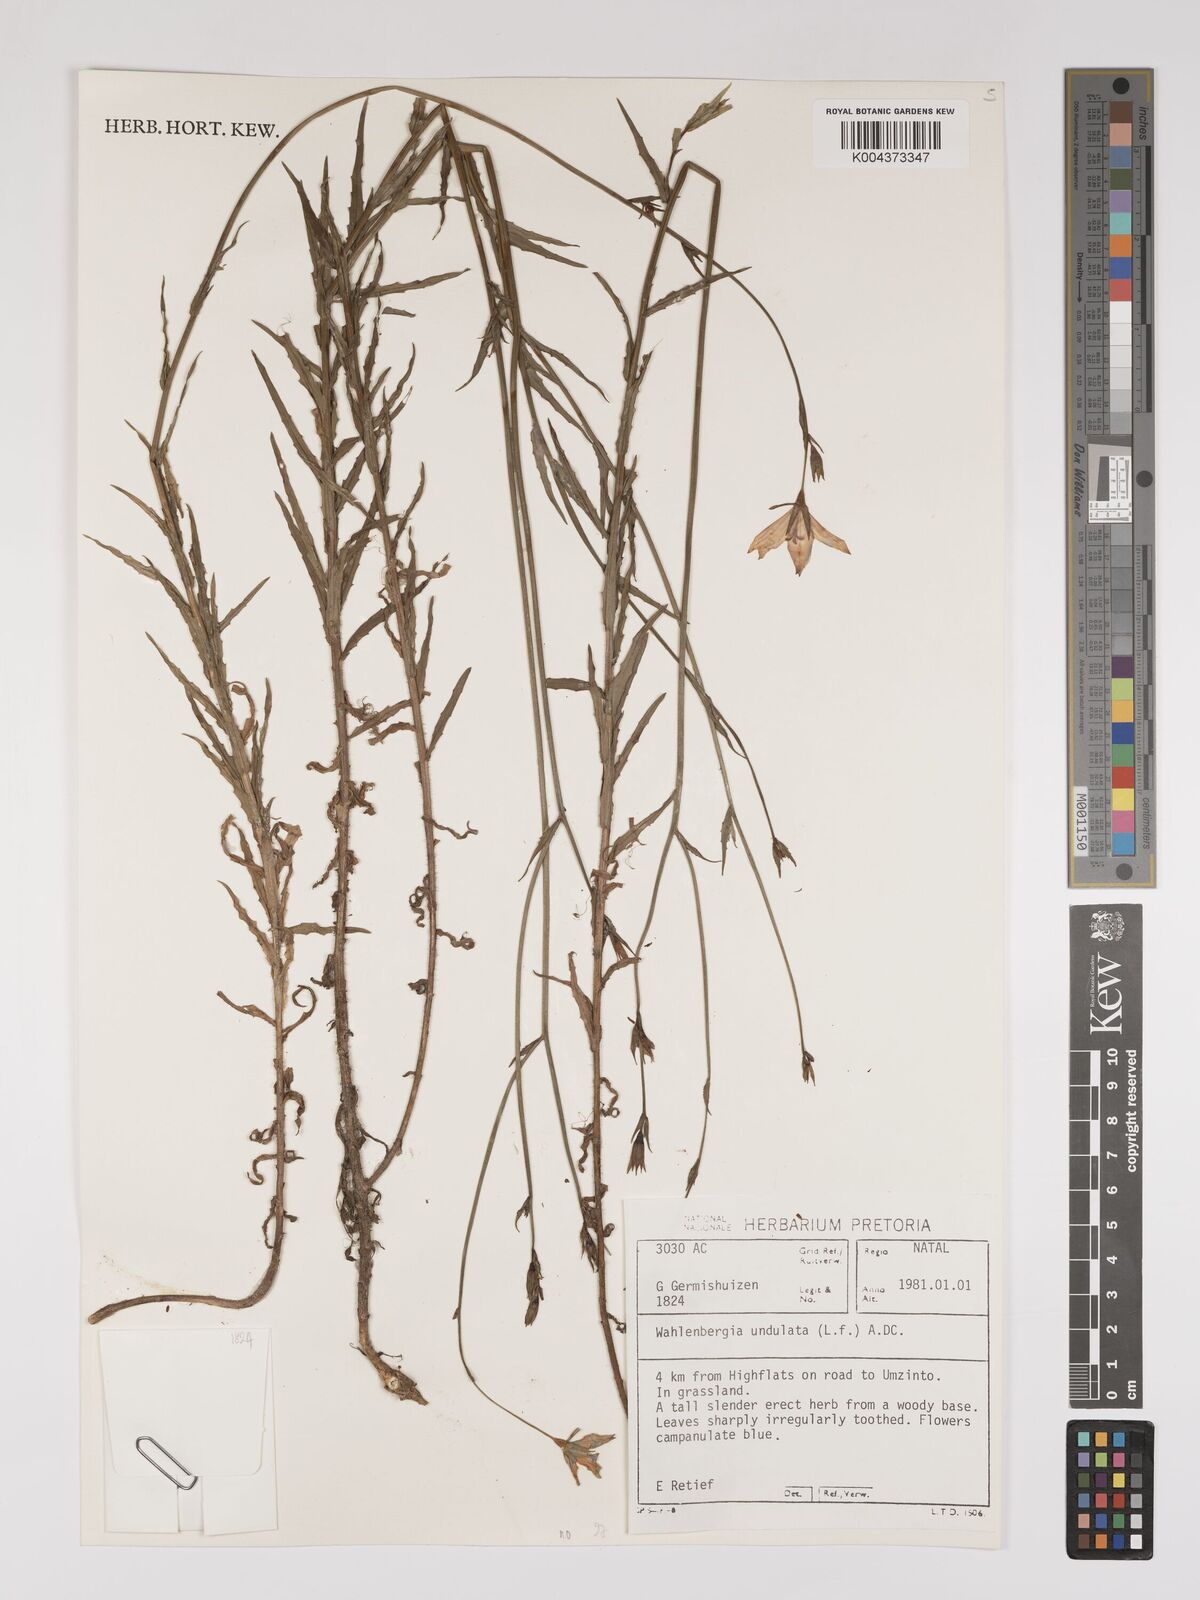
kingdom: Plantae
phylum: Tracheophyta
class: Magnoliopsida
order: Asterales
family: Campanulaceae
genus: Wahlenbergia
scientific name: Wahlenbergia undulata
